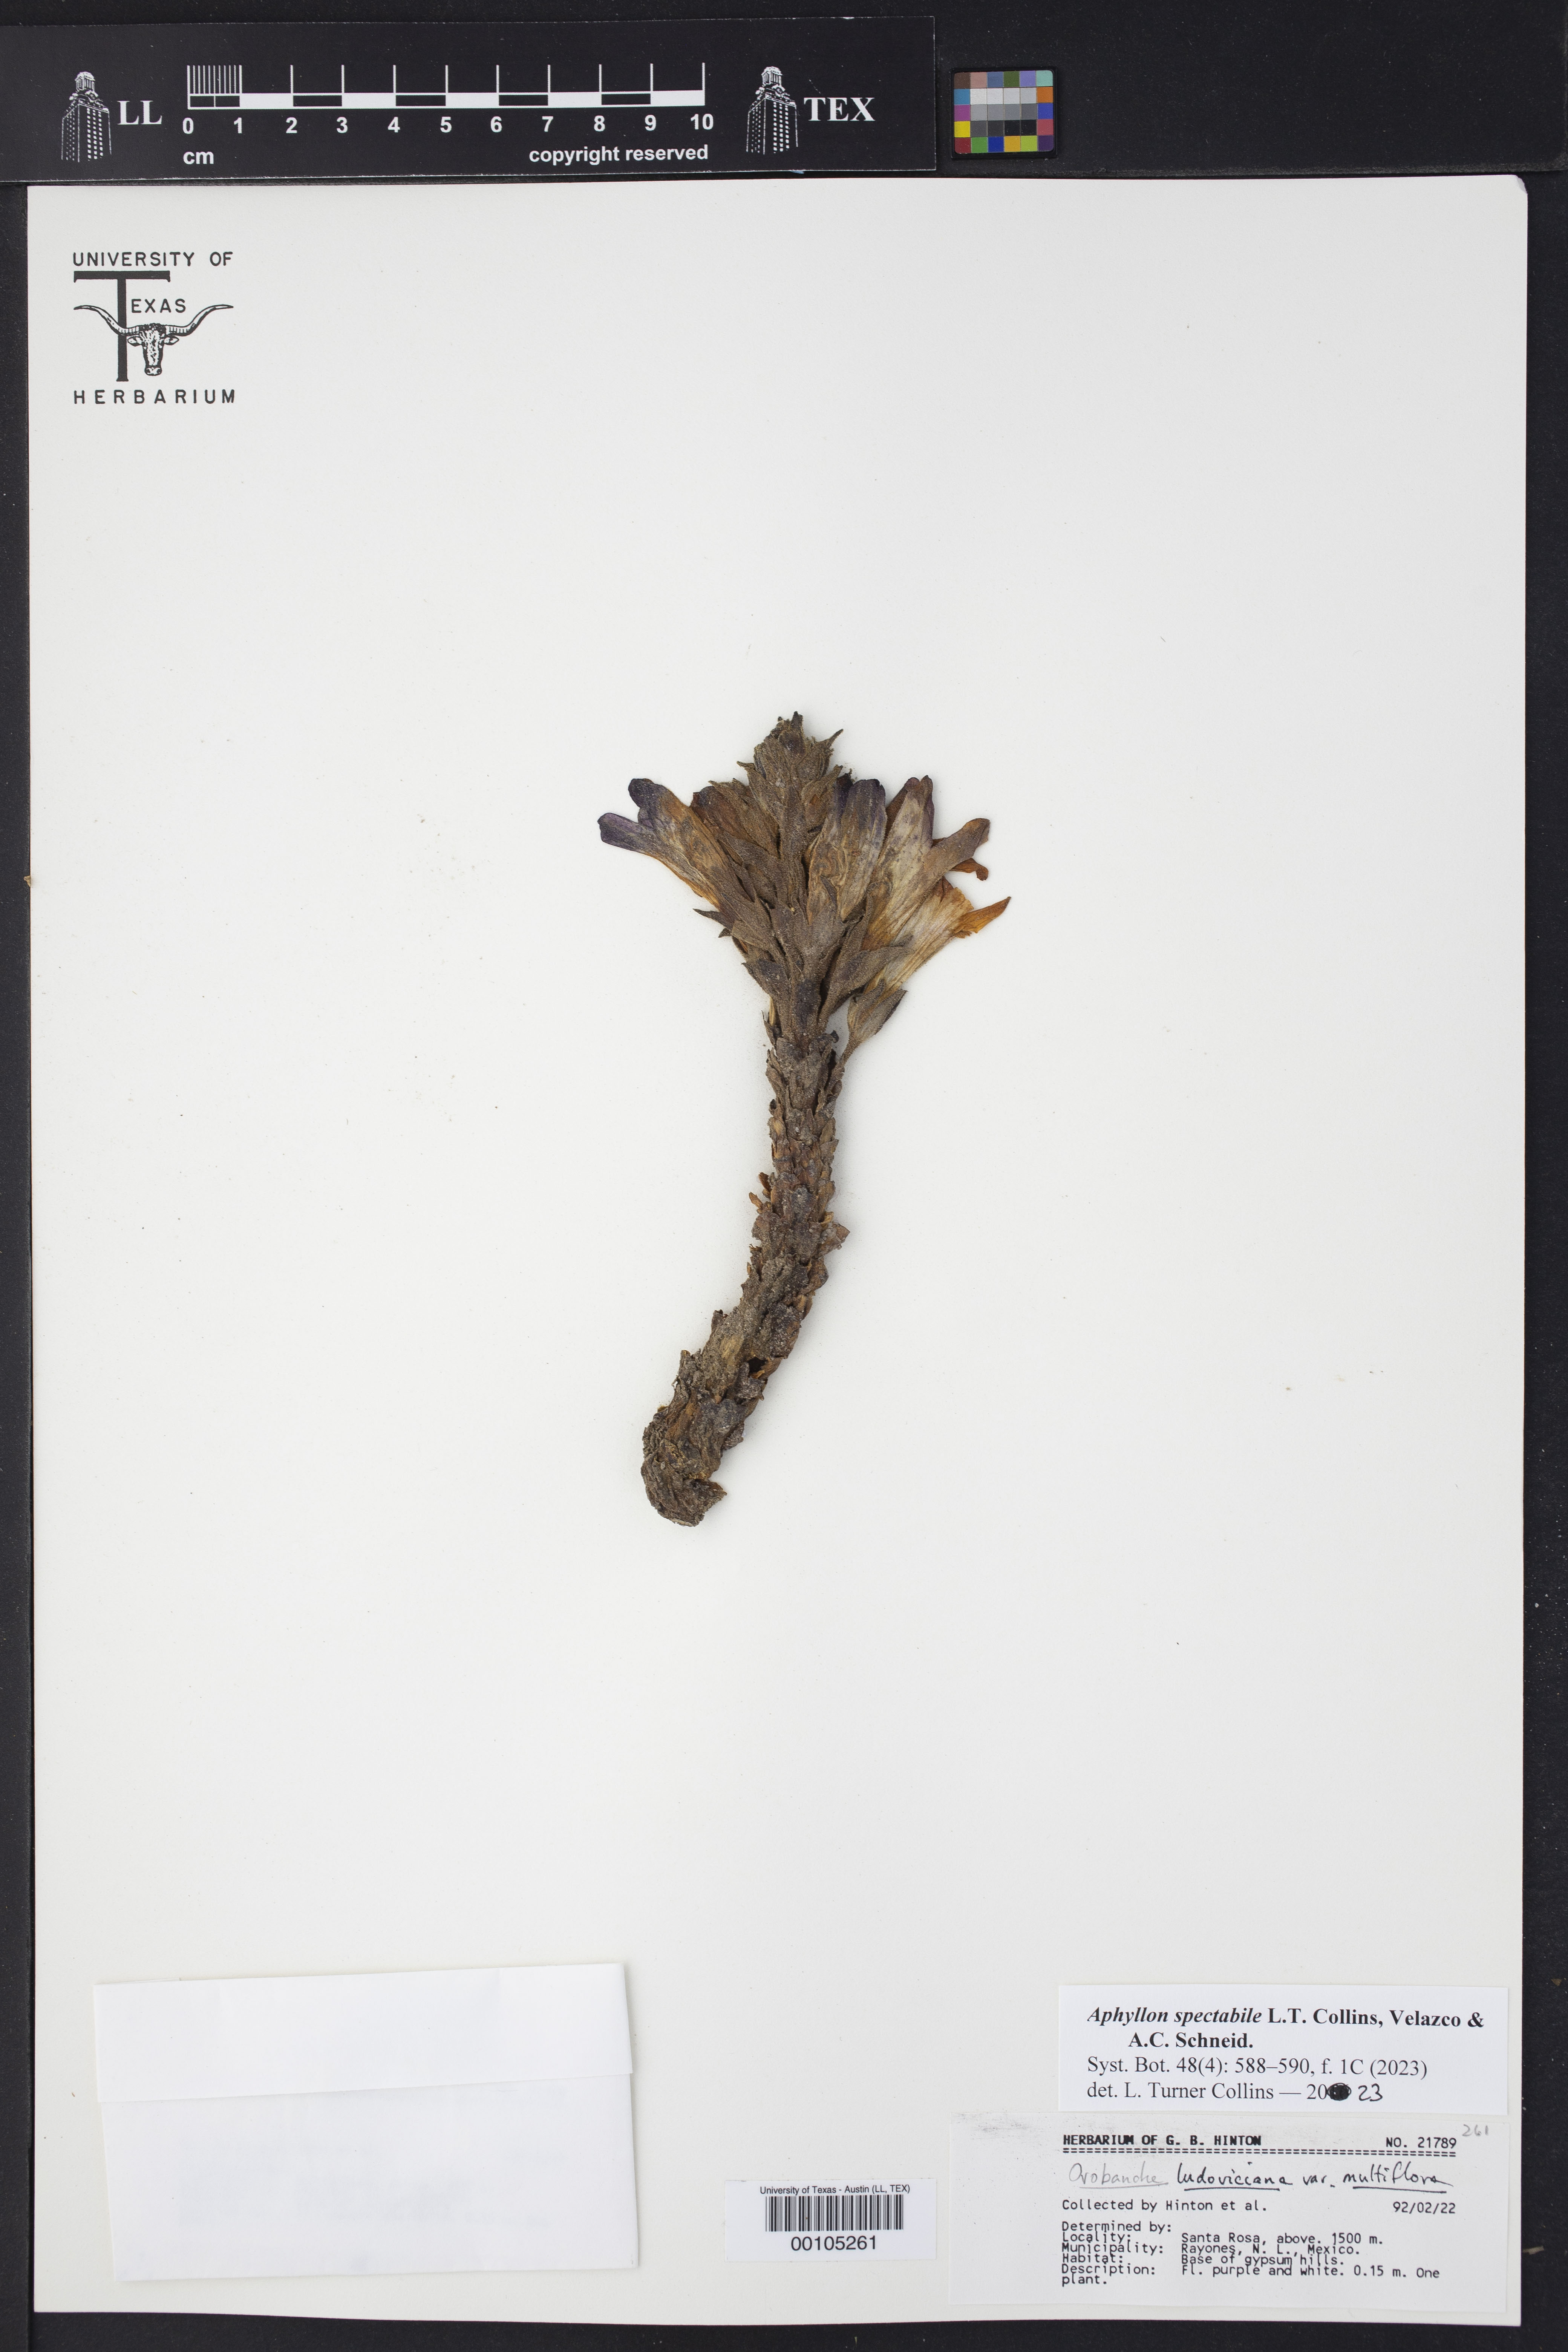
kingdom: Plantae
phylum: Tracheophyta
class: Magnoliopsida
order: Lamiales
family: Orobanchaceae
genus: Aphyllon
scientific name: Aphyllon
